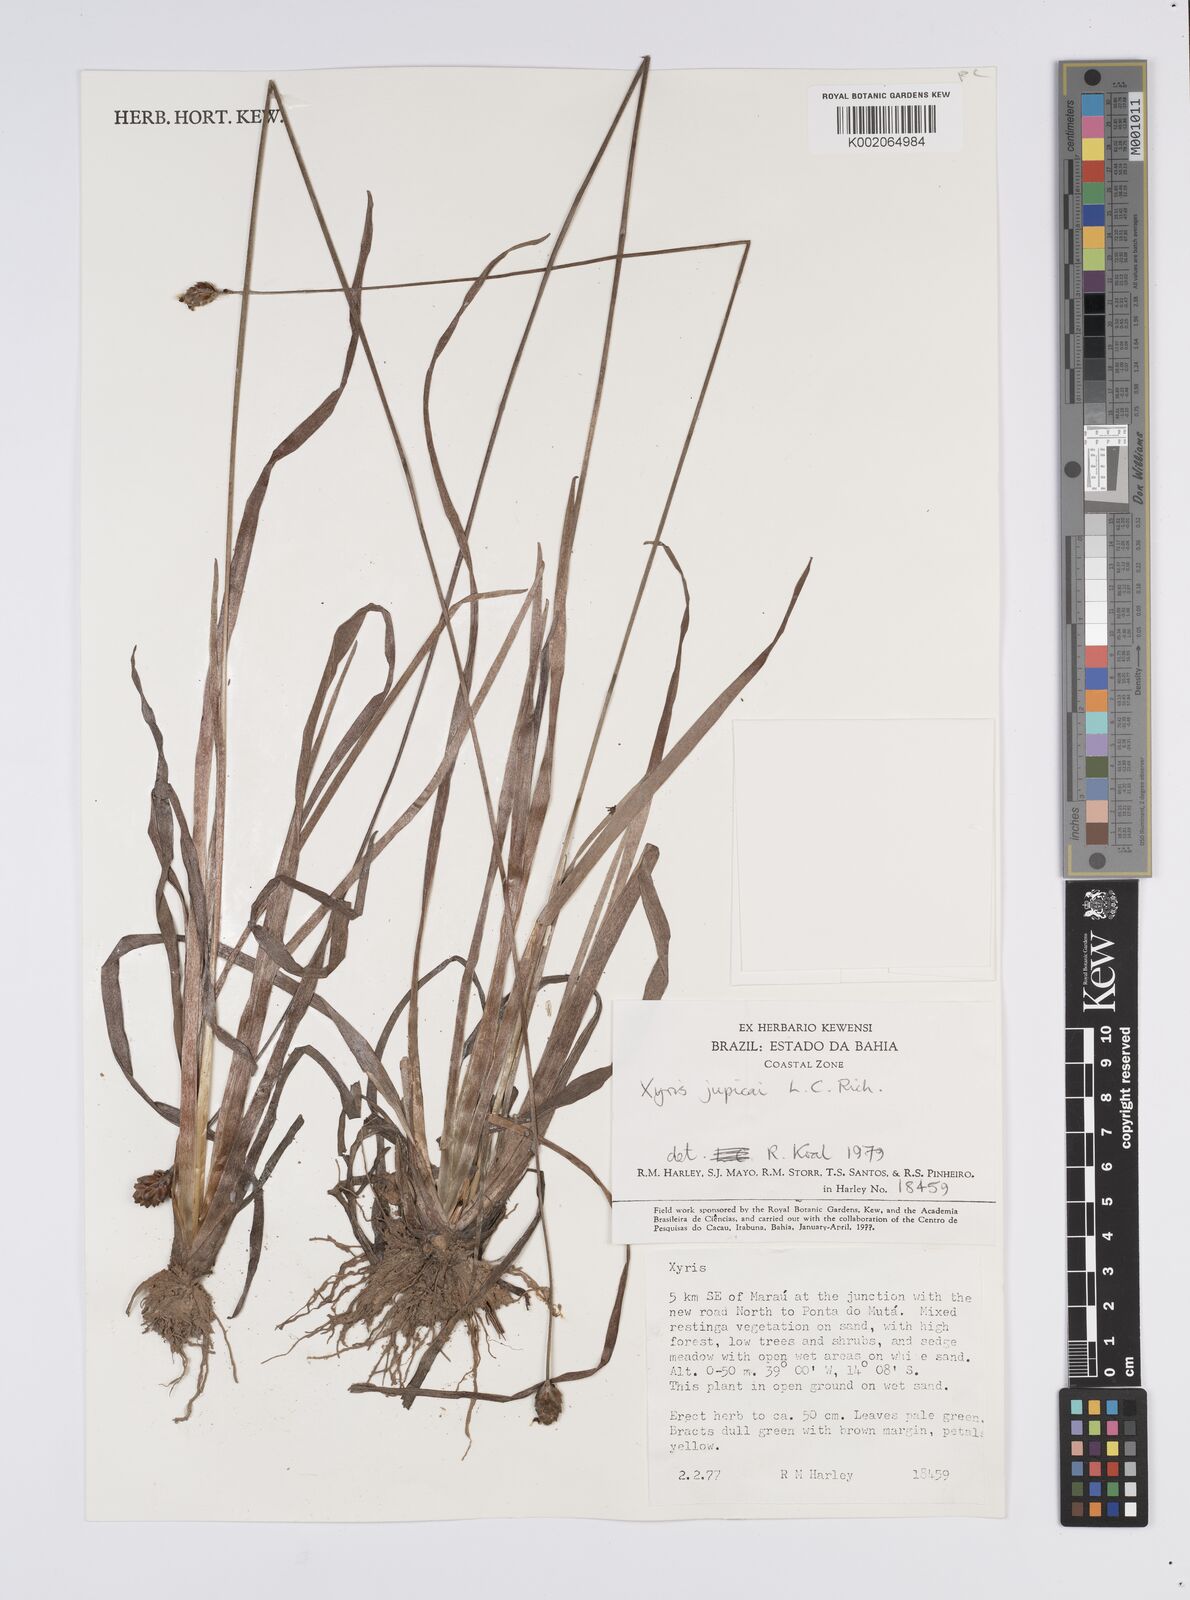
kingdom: Plantae
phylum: Tracheophyta
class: Liliopsida
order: Poales
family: Xyridaceae
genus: Xyris
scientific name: Xyris jupicai
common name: Richard's yelloweyed grass
